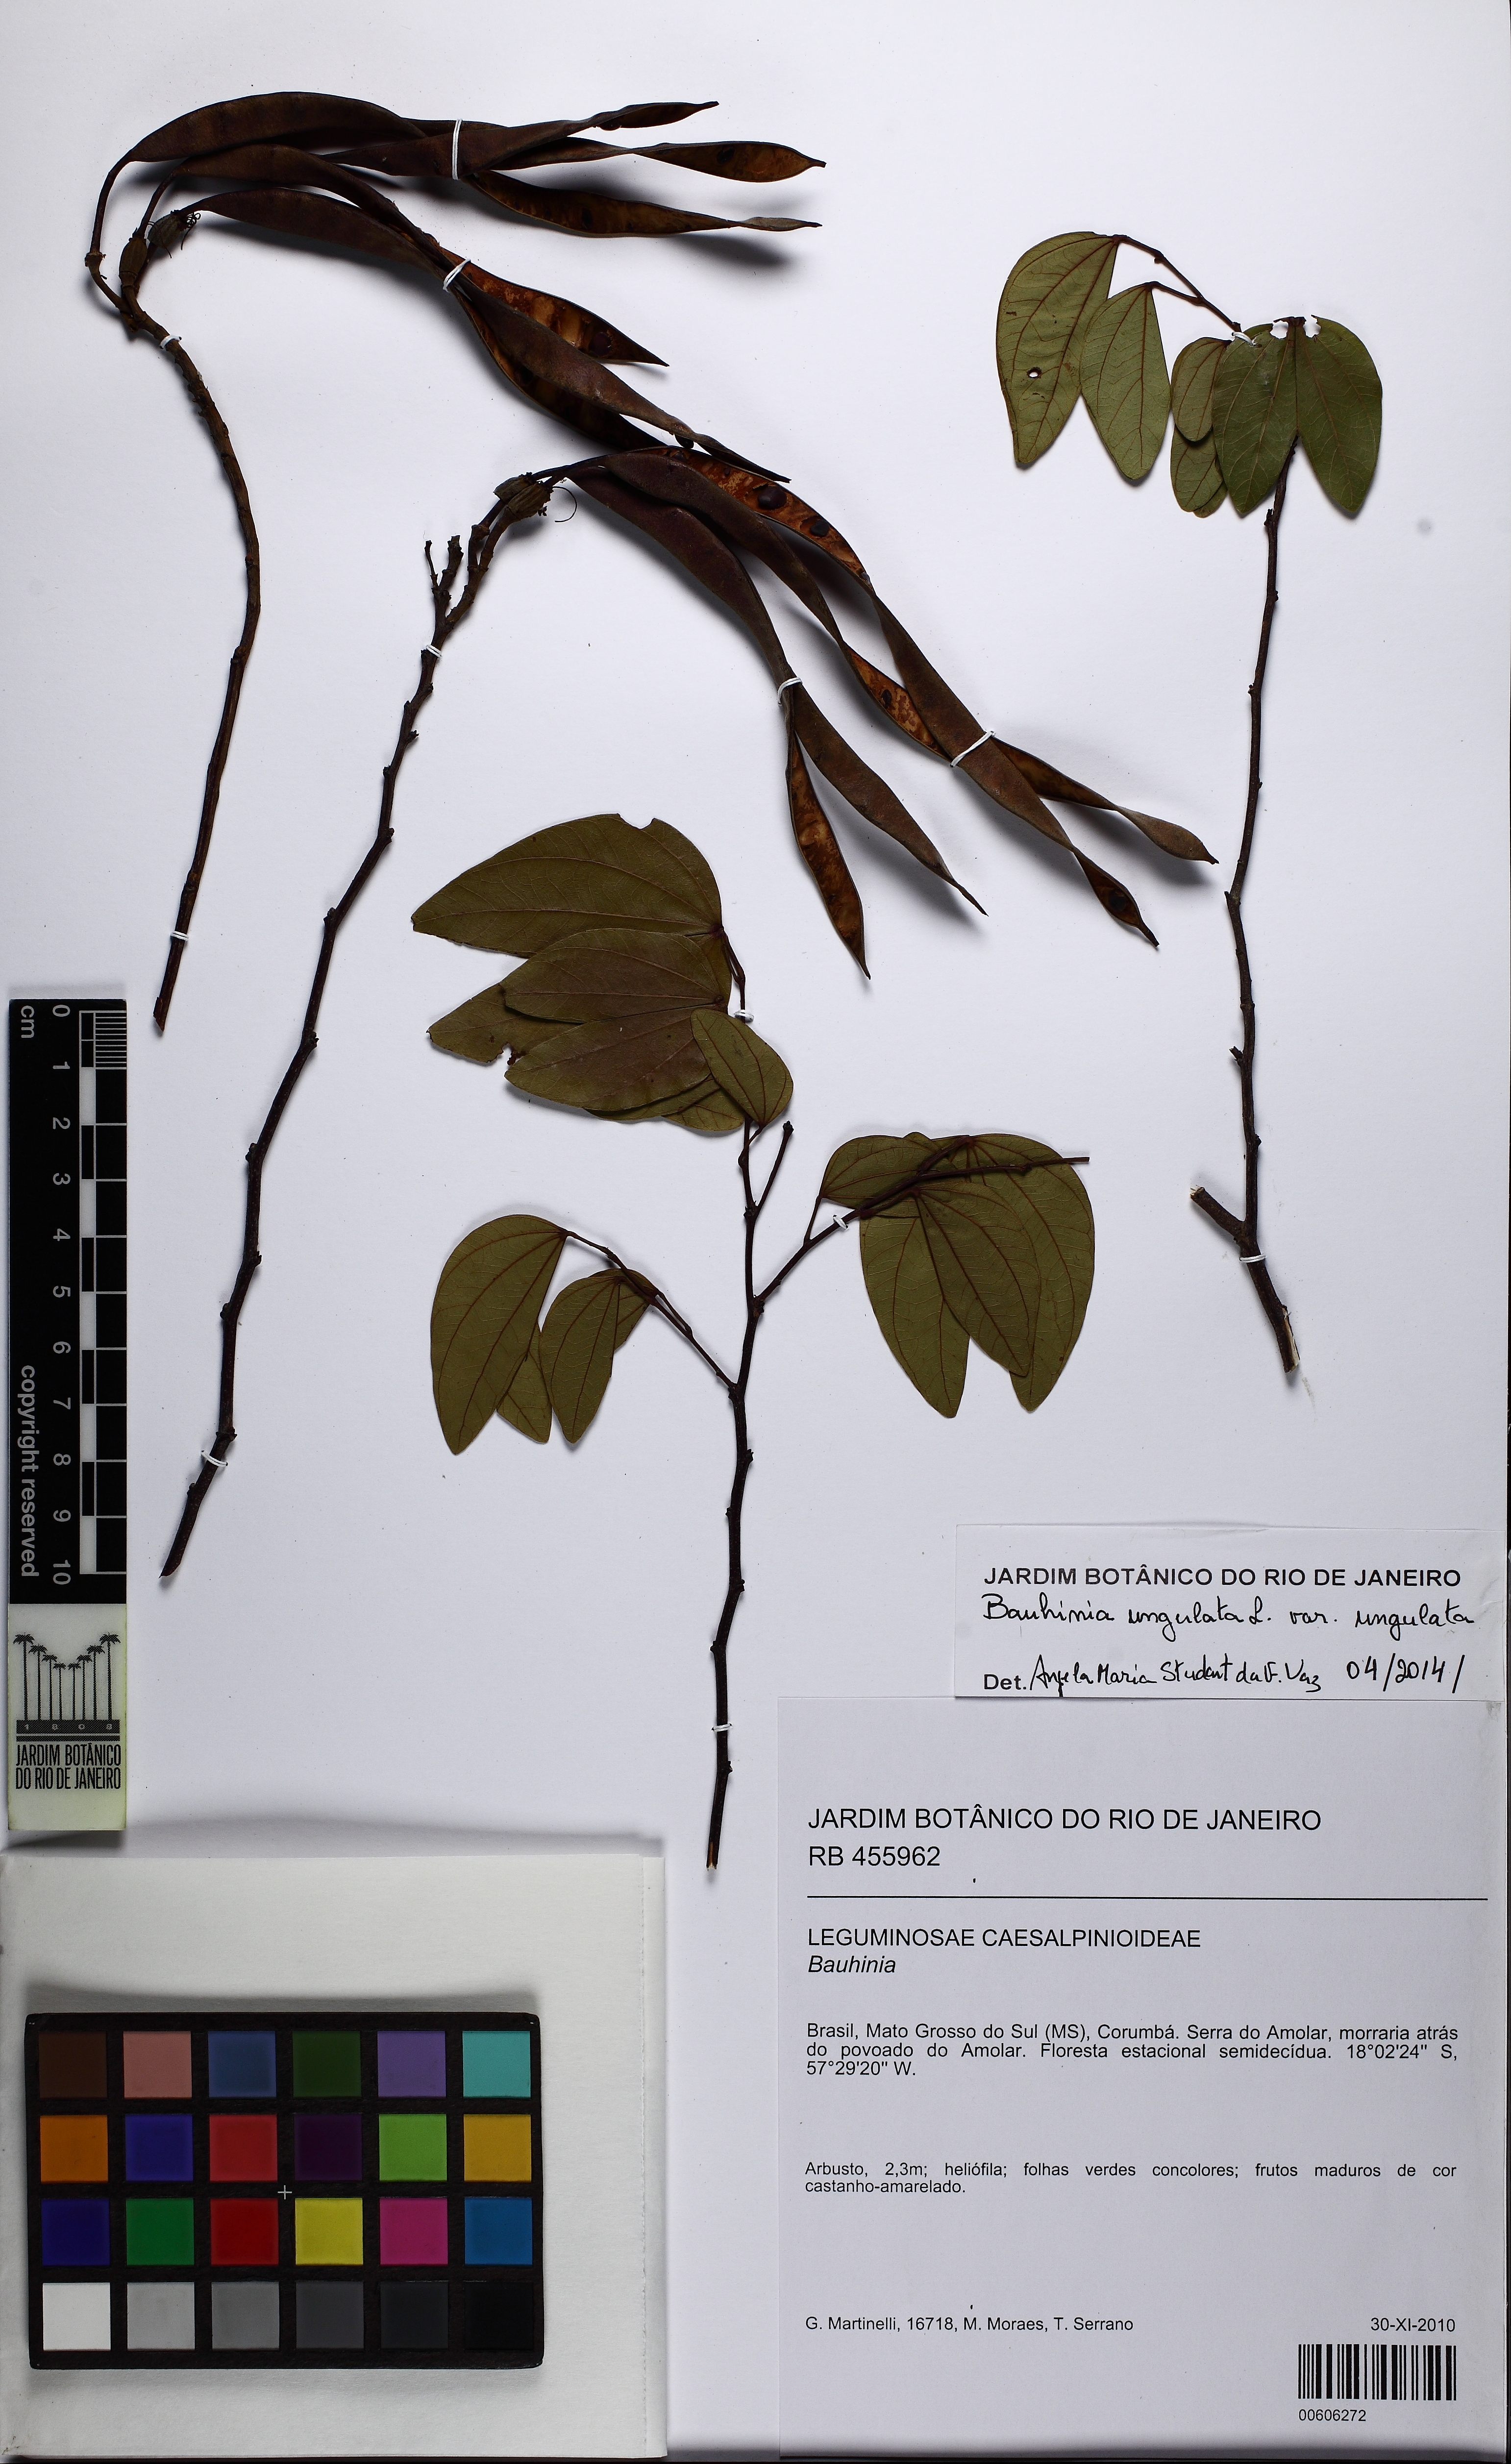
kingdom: Plantae
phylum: Tracheophyta
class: Magnoliopsida
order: Fabales
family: Fabaceae
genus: Bauhinia
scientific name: Bauhinia ungulata
